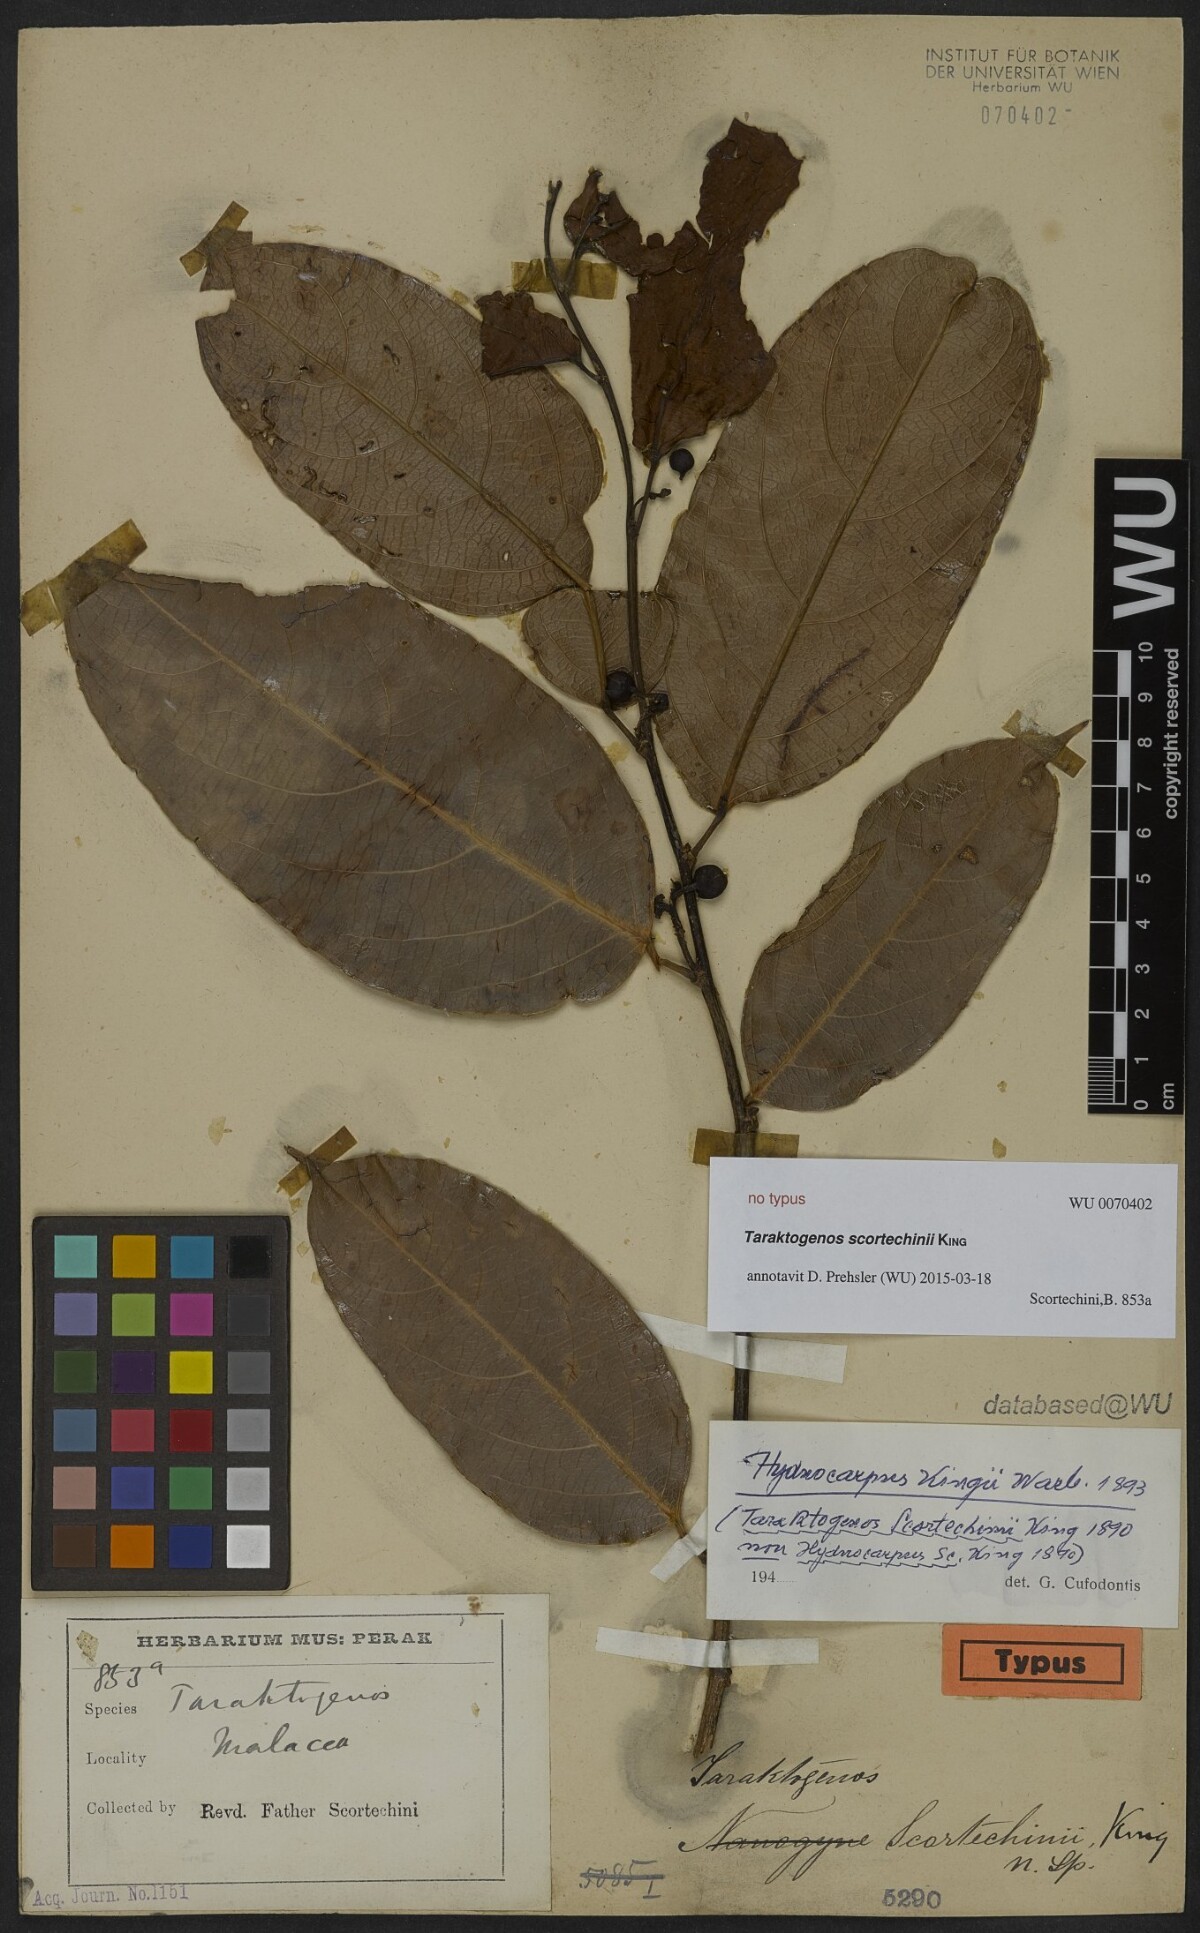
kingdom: Plantae
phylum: Tracheophyta
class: Magnoliopsida
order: Malpighiales
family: Achariaceae
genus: Hydnocarpus
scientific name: Hydnocarpus kunstleri
